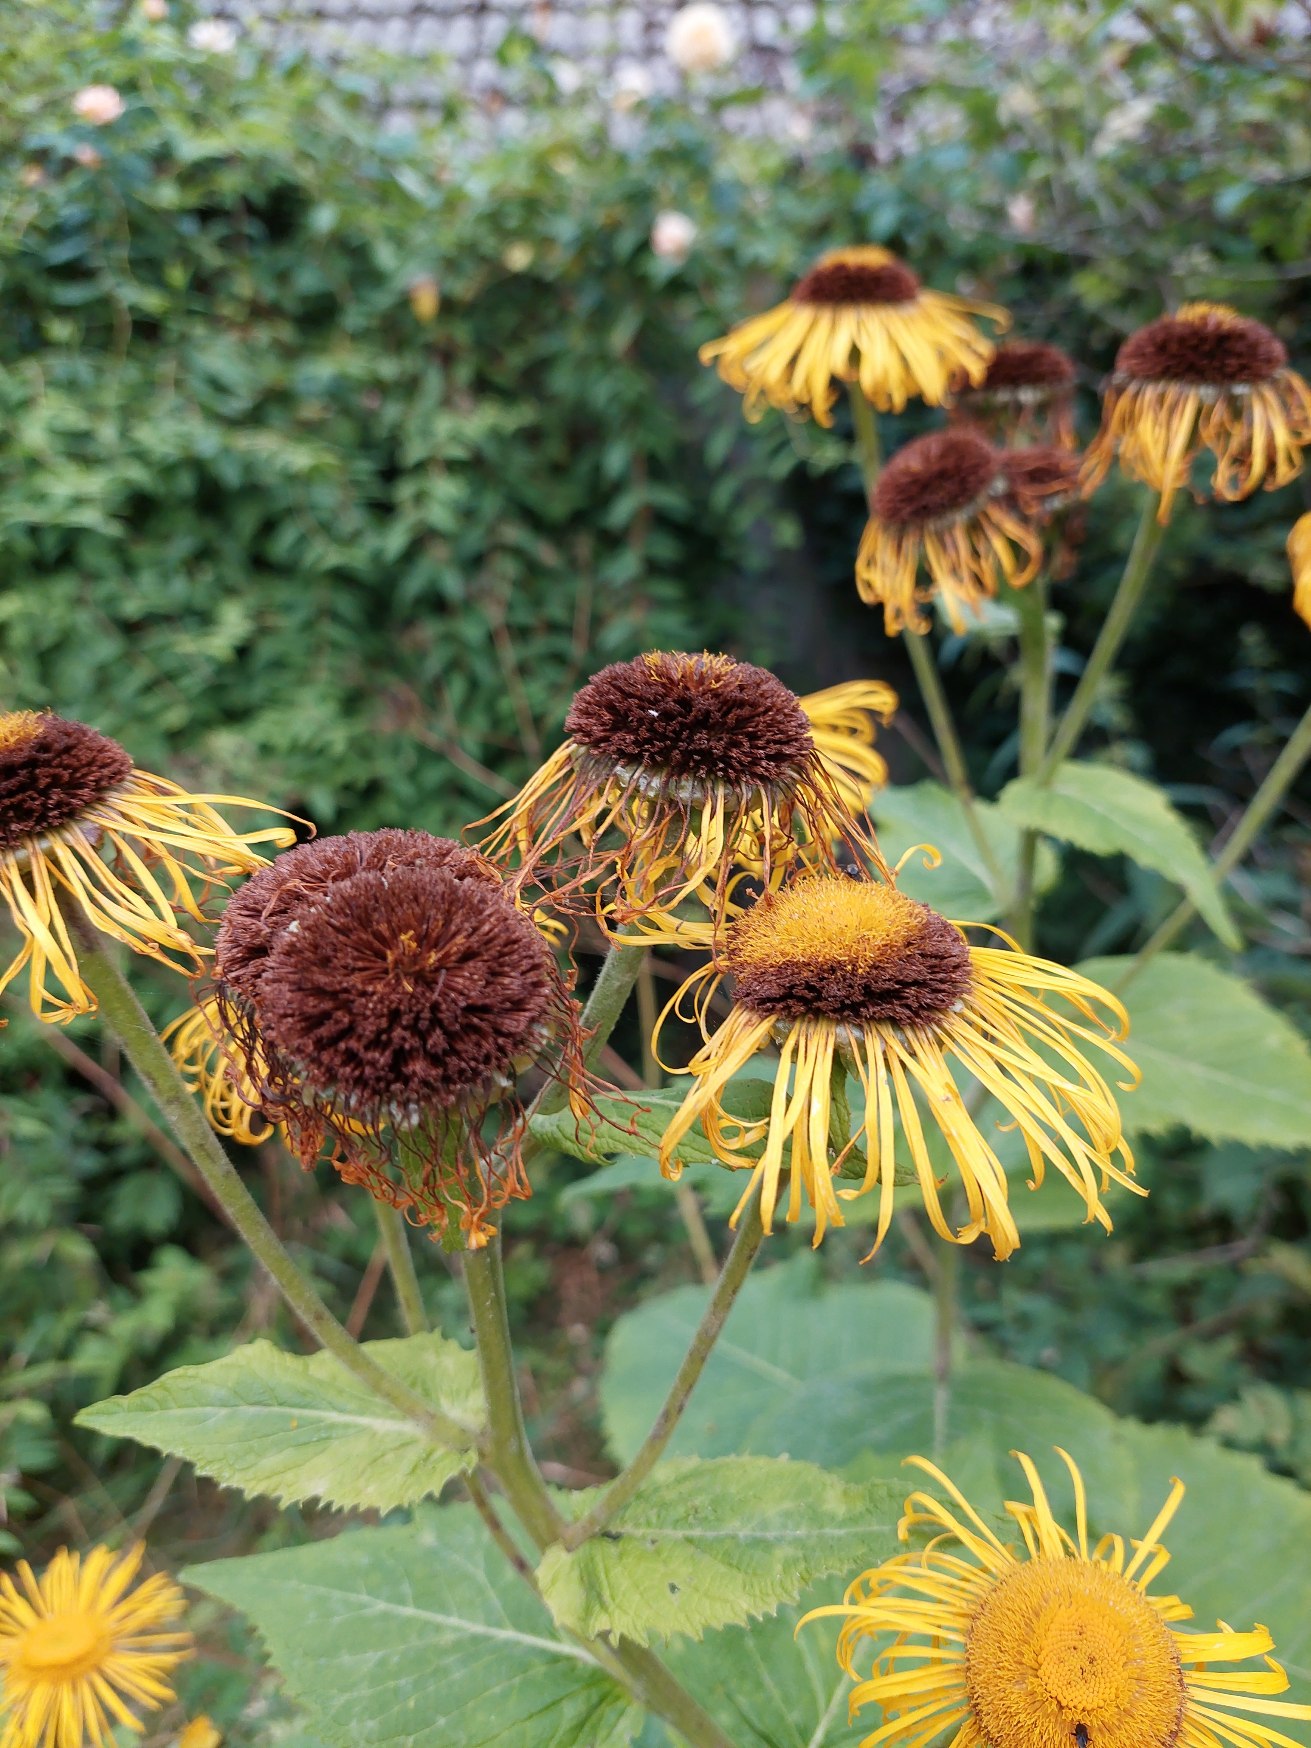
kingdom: Plantae
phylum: Tracheophyta
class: Magnoliopsida
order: Asterales
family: Asteraceae
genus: Telekia
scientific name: Telekia speciosa
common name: Tusindstråle
